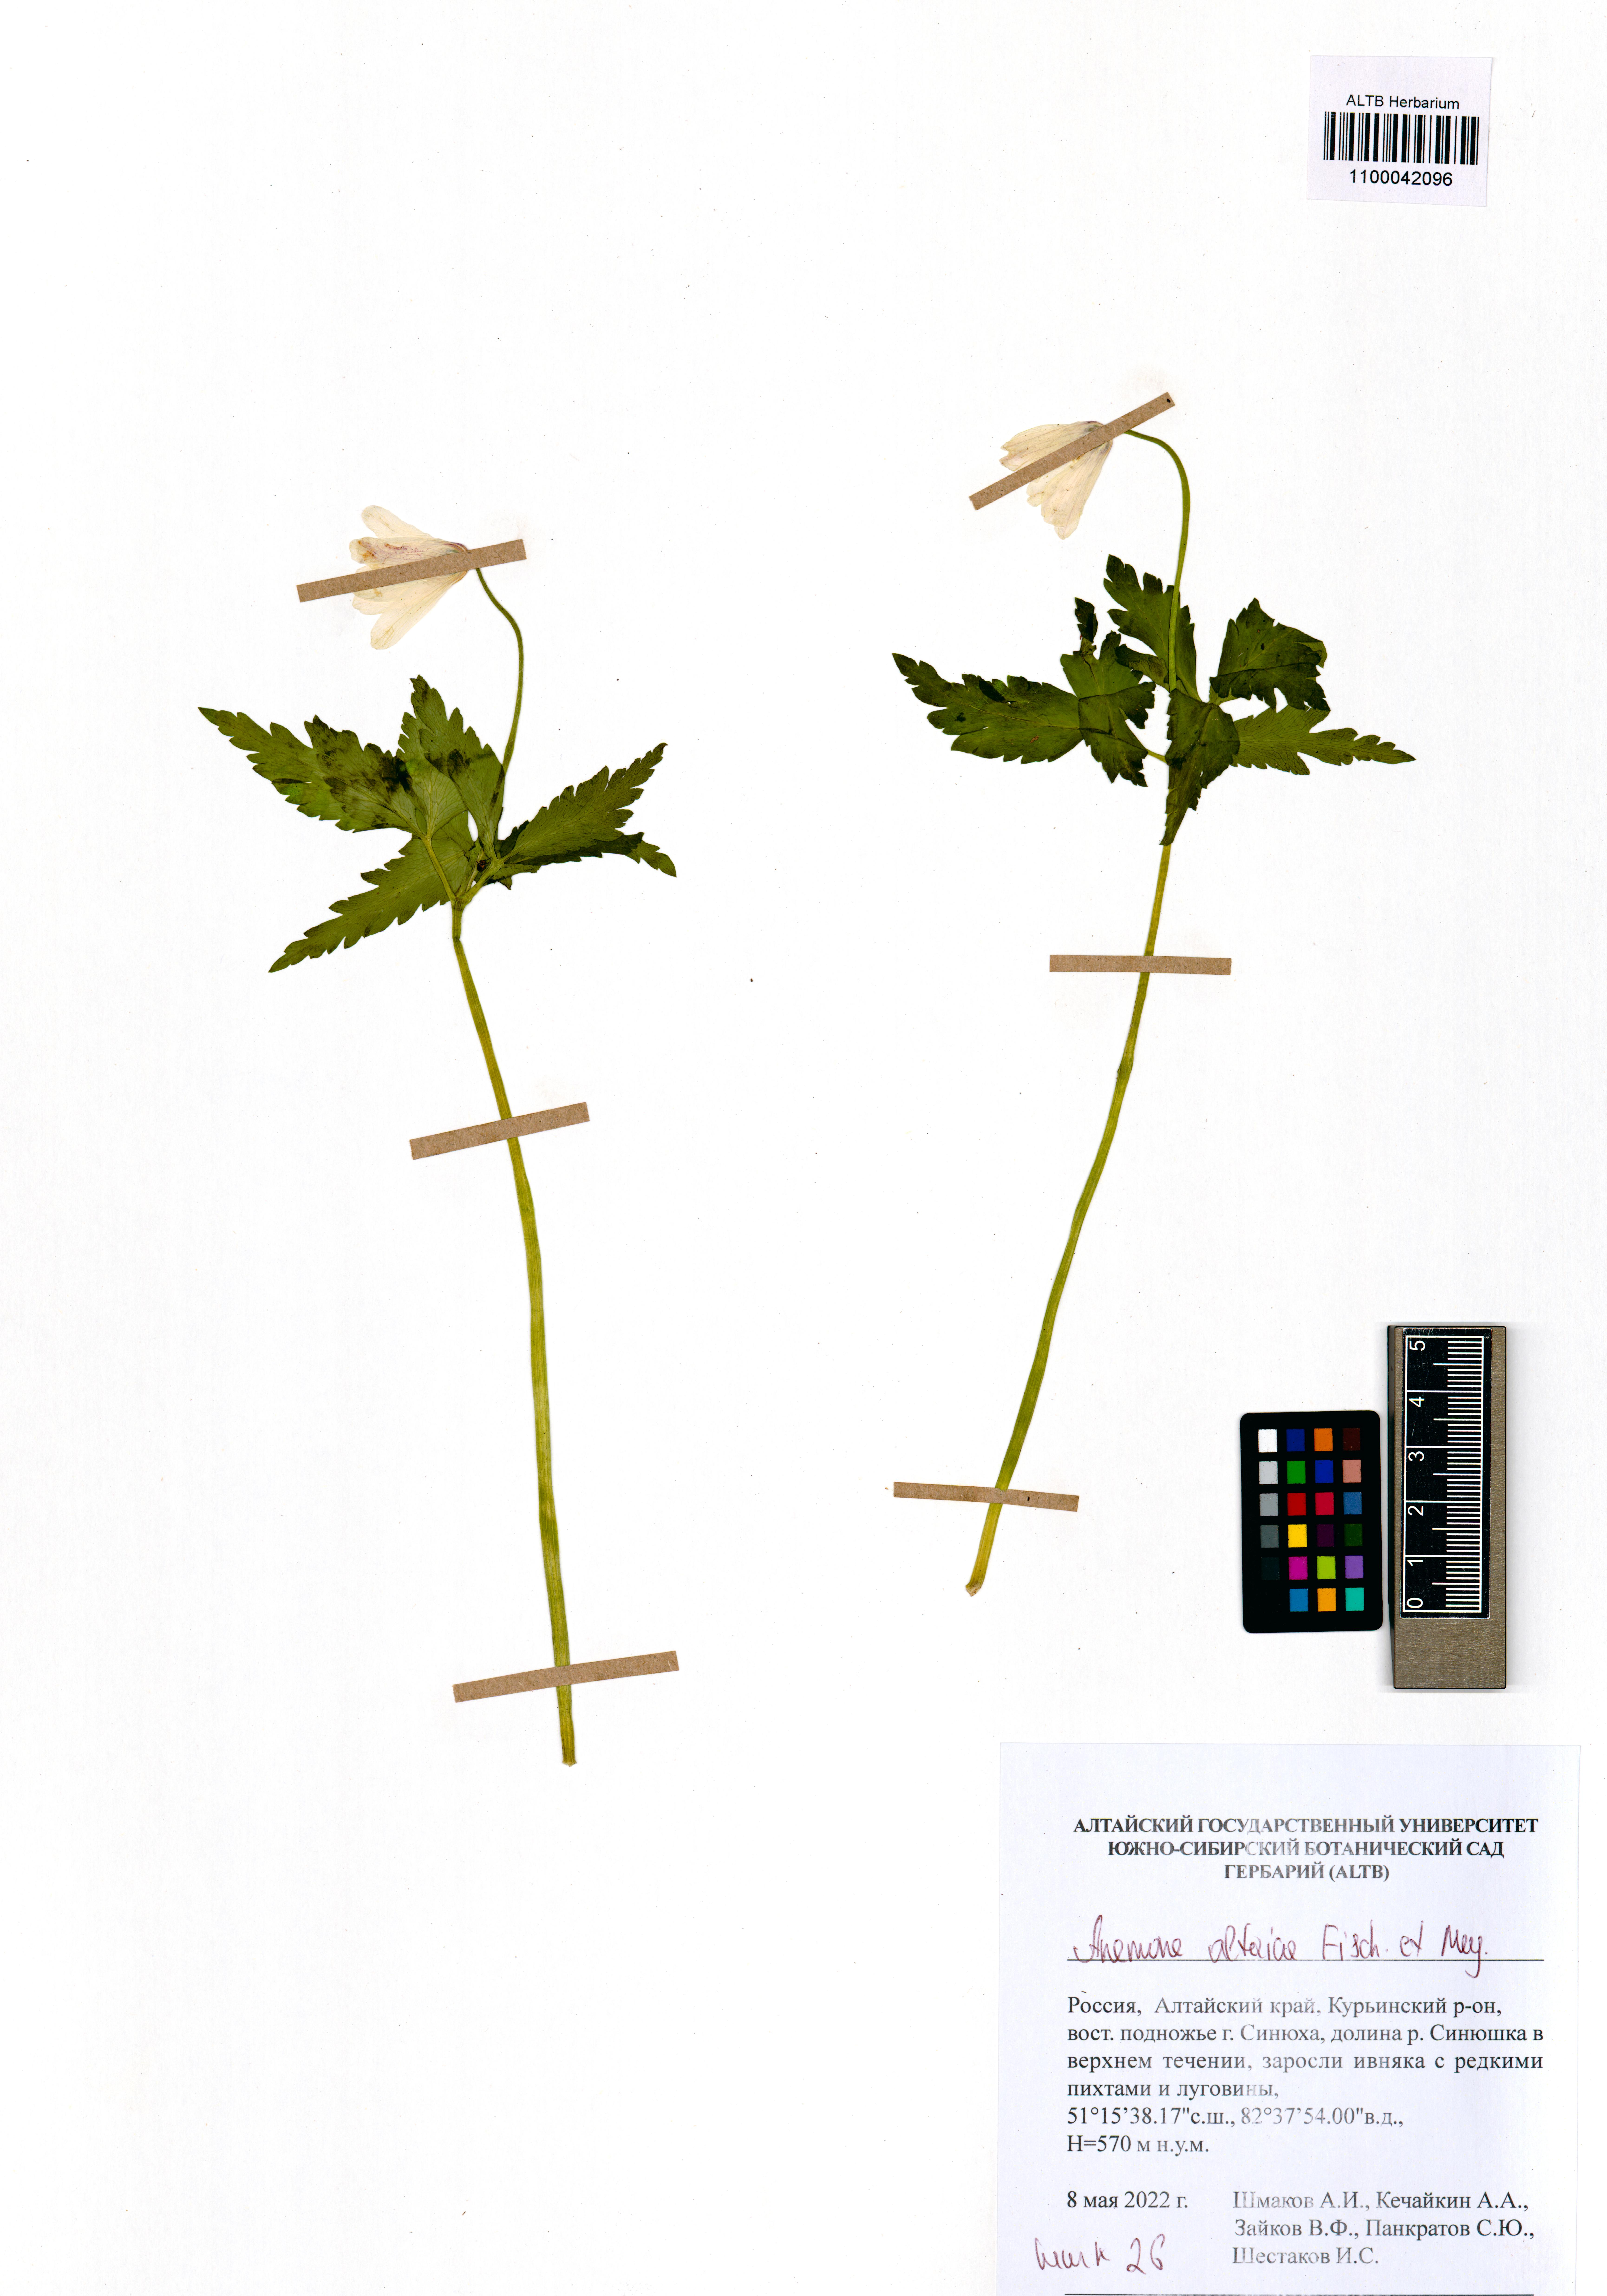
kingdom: Plantae
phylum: Tracheophyta
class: Magnoliopsida
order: Ranunculales
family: Ranunculaceae
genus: Anemone
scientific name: Anemone altaica
